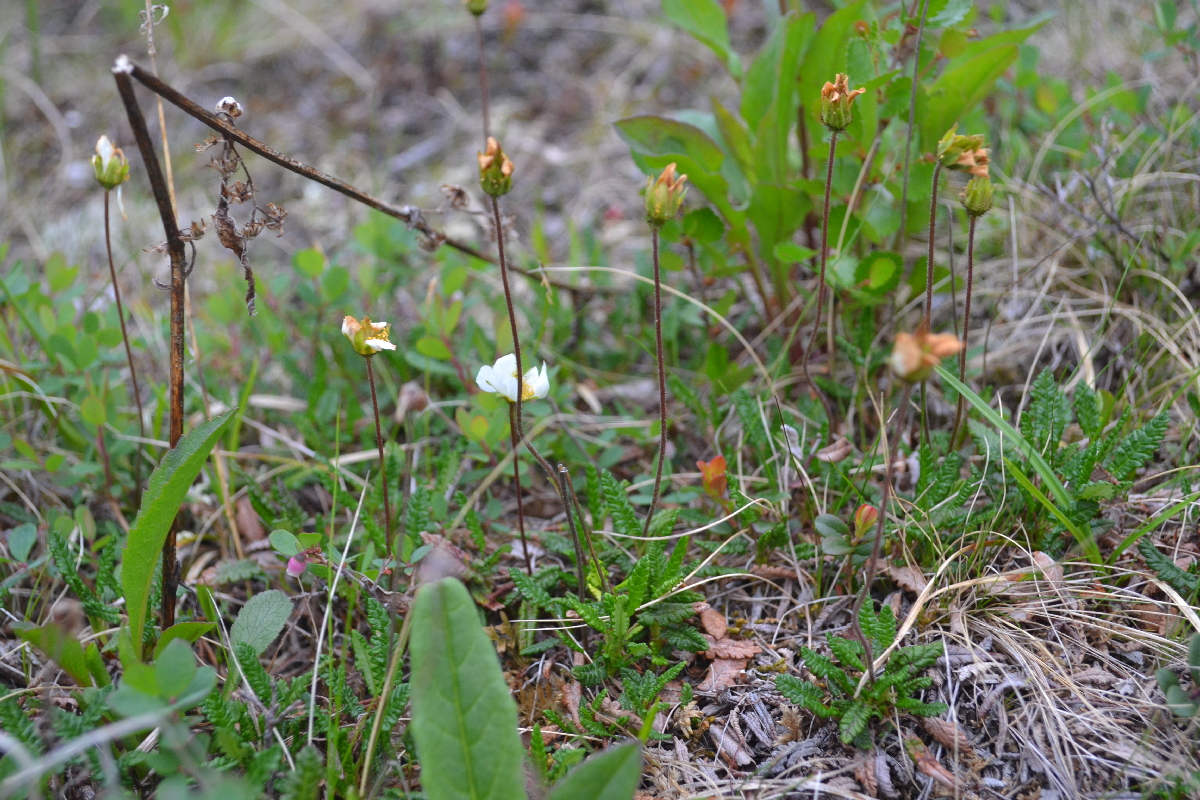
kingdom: Plantae
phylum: Tracheophyta
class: Magnoliopsida
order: Rosales
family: Rosaceae
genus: Dryas
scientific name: Dryas octopetala
